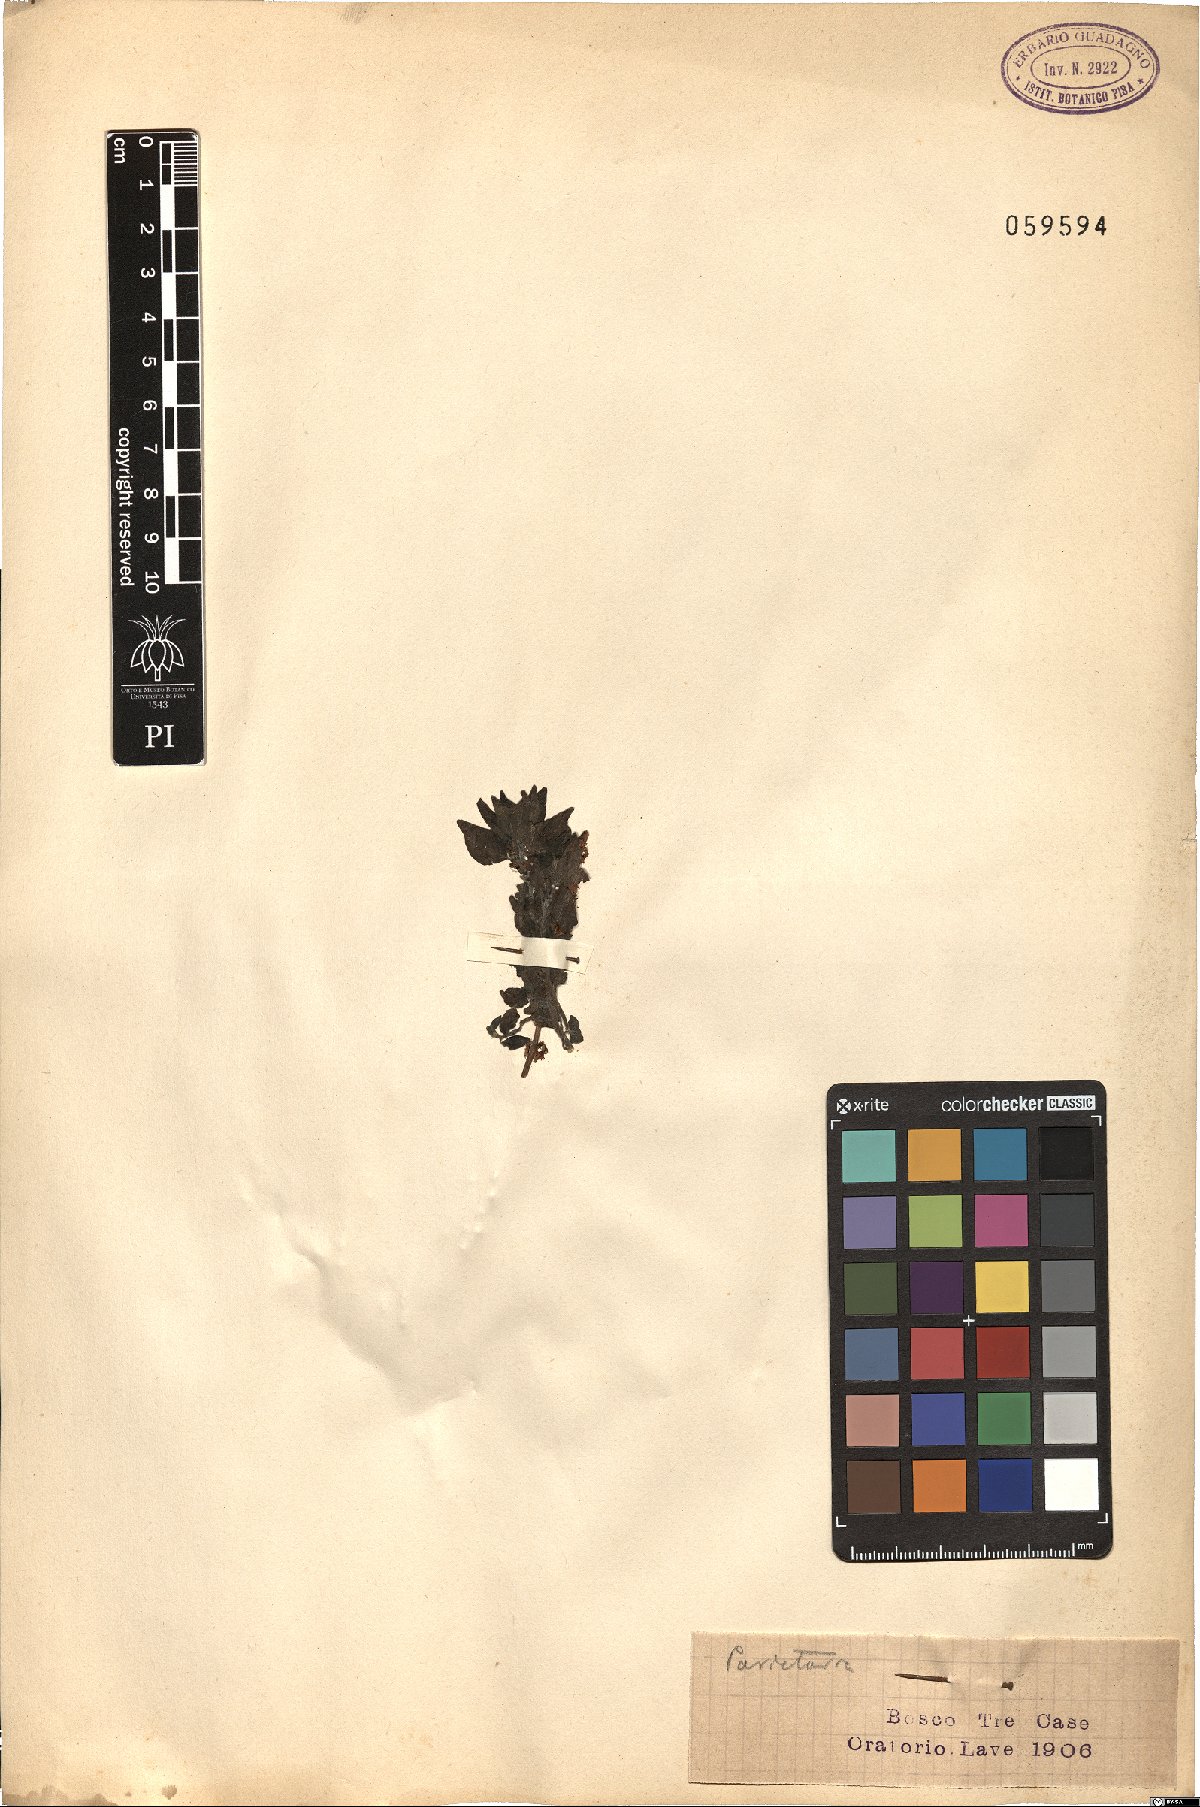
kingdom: Plantae
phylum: Tracheophyta
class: Magnoliopsida
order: Rosales
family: Urticaceae
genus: Parietaria
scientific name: Parietaria
